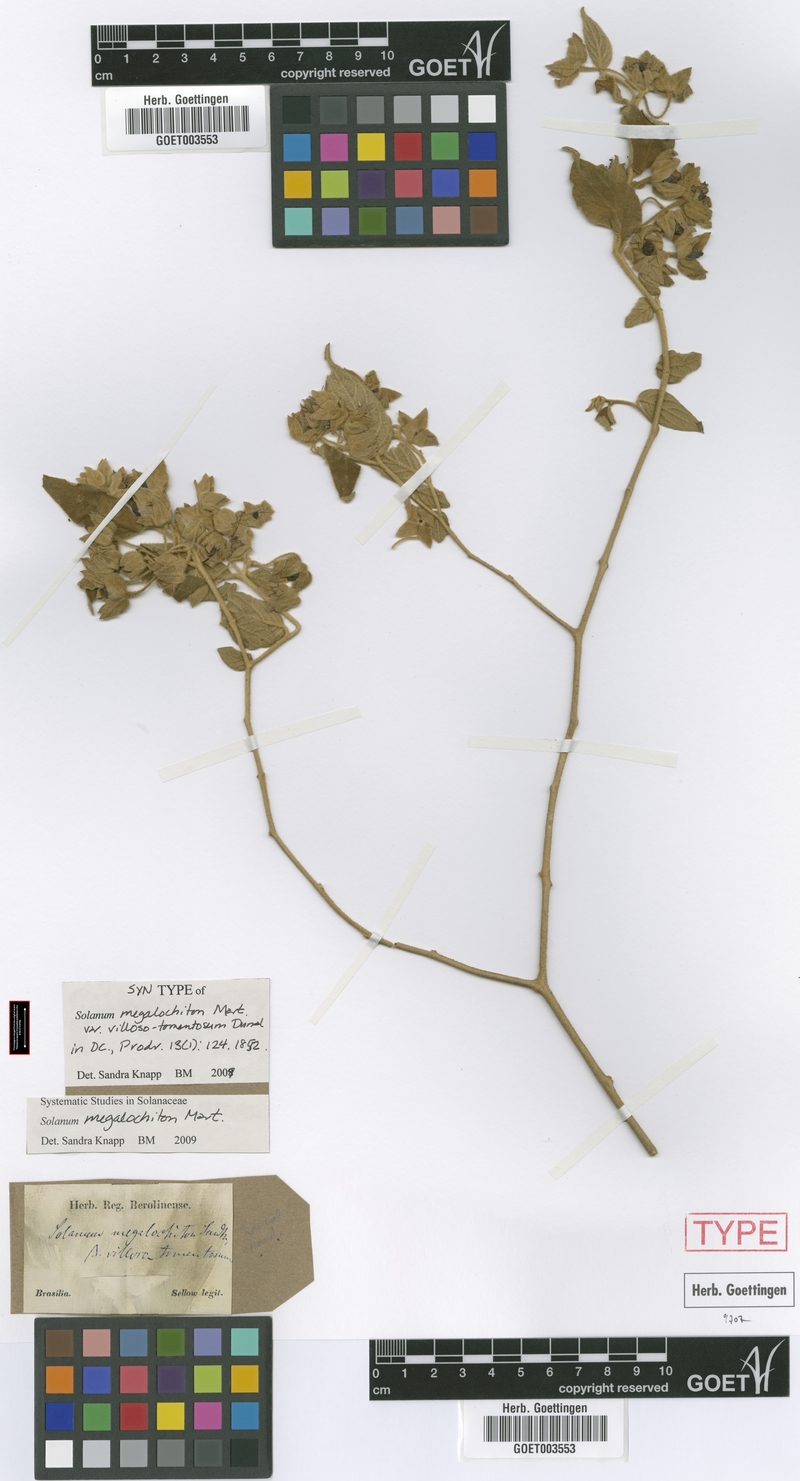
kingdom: Plantae
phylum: Tracheophyta
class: Magnoliopsida
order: Solanales
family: Solanaceae
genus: Solanum
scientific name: Solanum megalochiton
